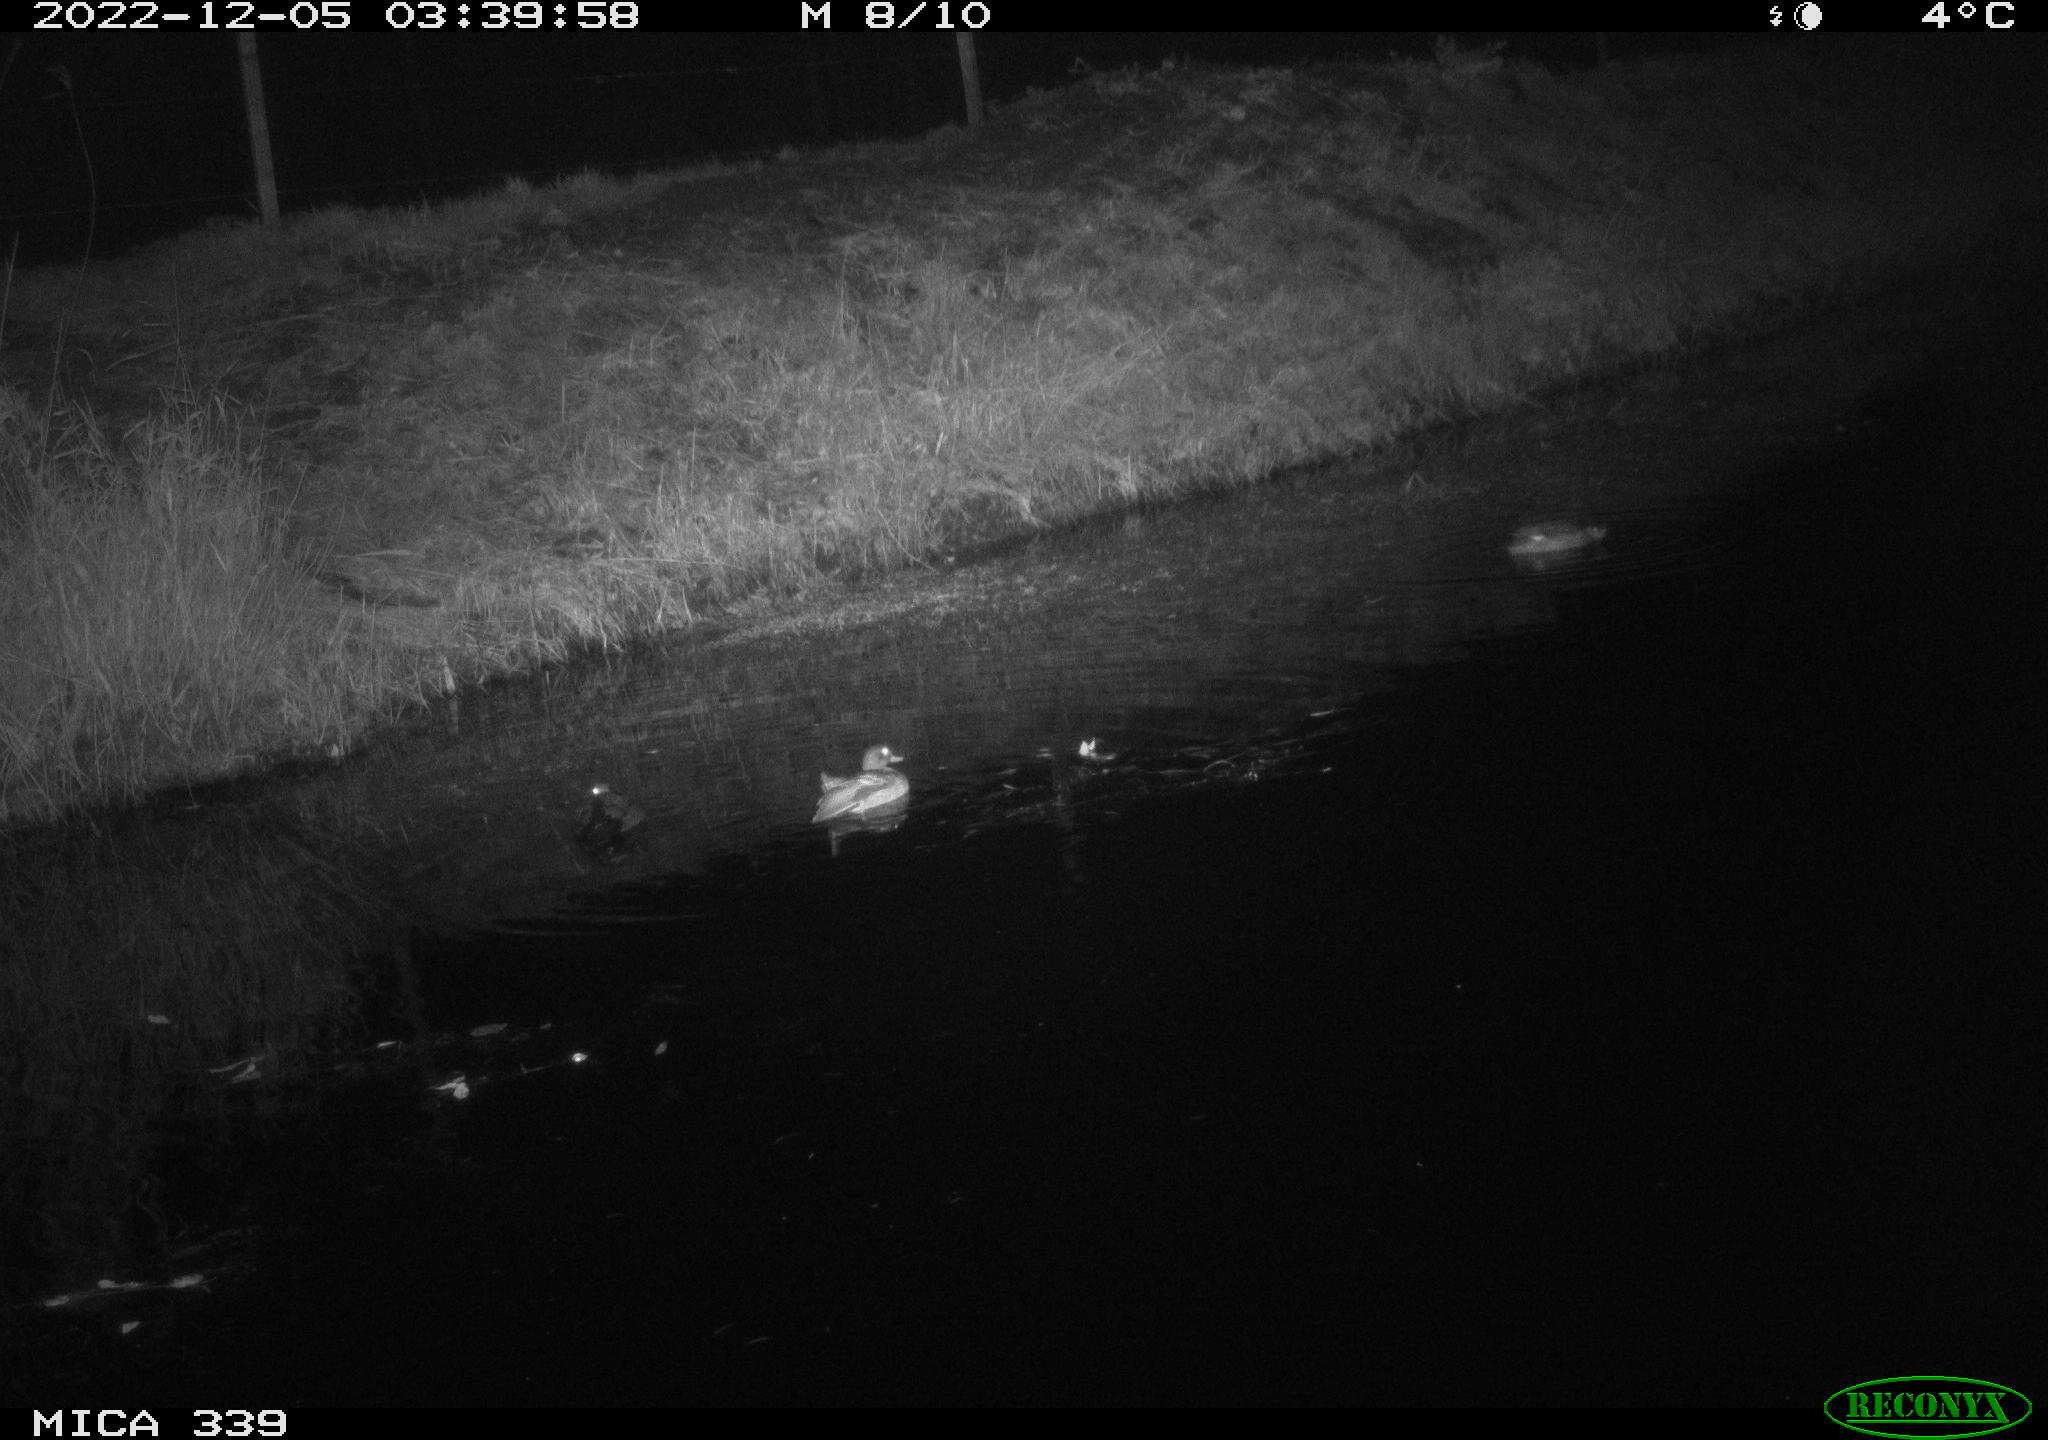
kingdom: Animalia
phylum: Chordata
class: Aves
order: Anseriformes
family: Anatidae
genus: Anas
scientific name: Anas
